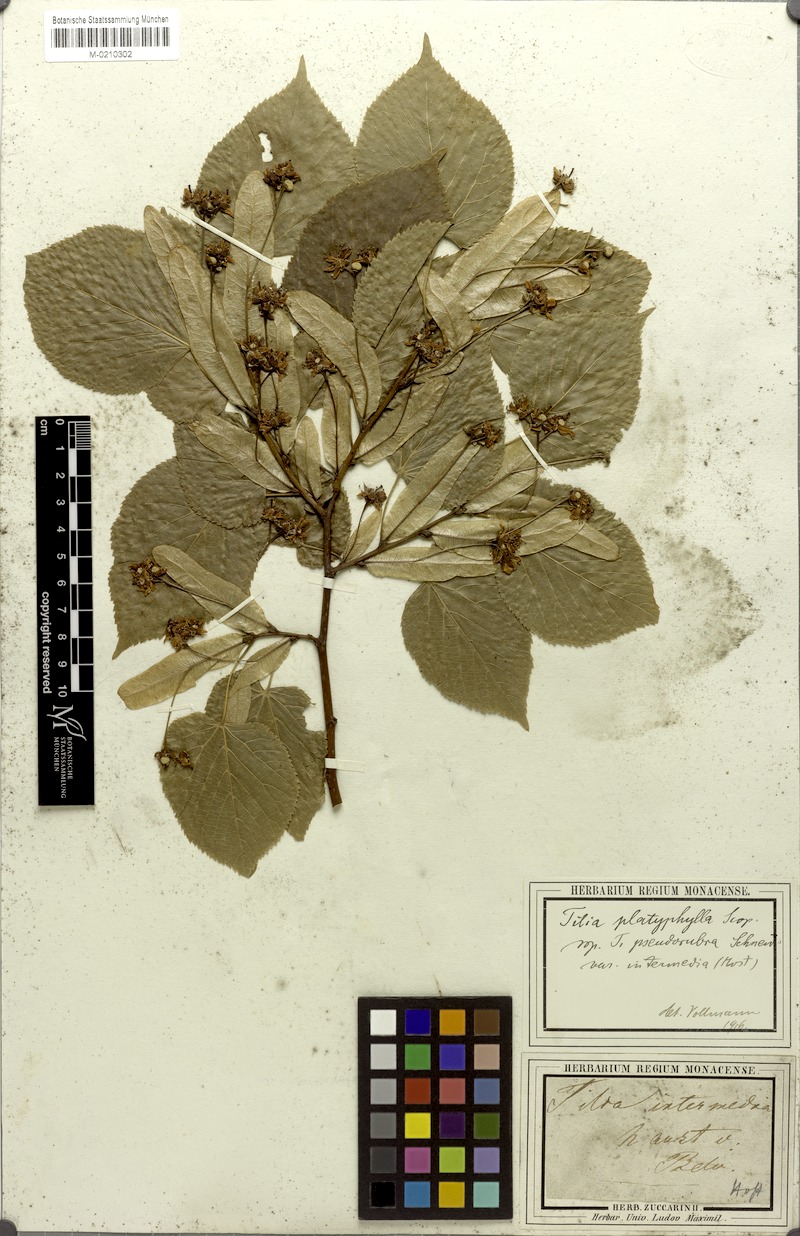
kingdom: Plantae
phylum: Tracheophyta
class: Magnoliopsida
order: Malvales
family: Malvaceae
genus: Tilia
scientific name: Tilia platyphyllos
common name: Large-leaved lime
